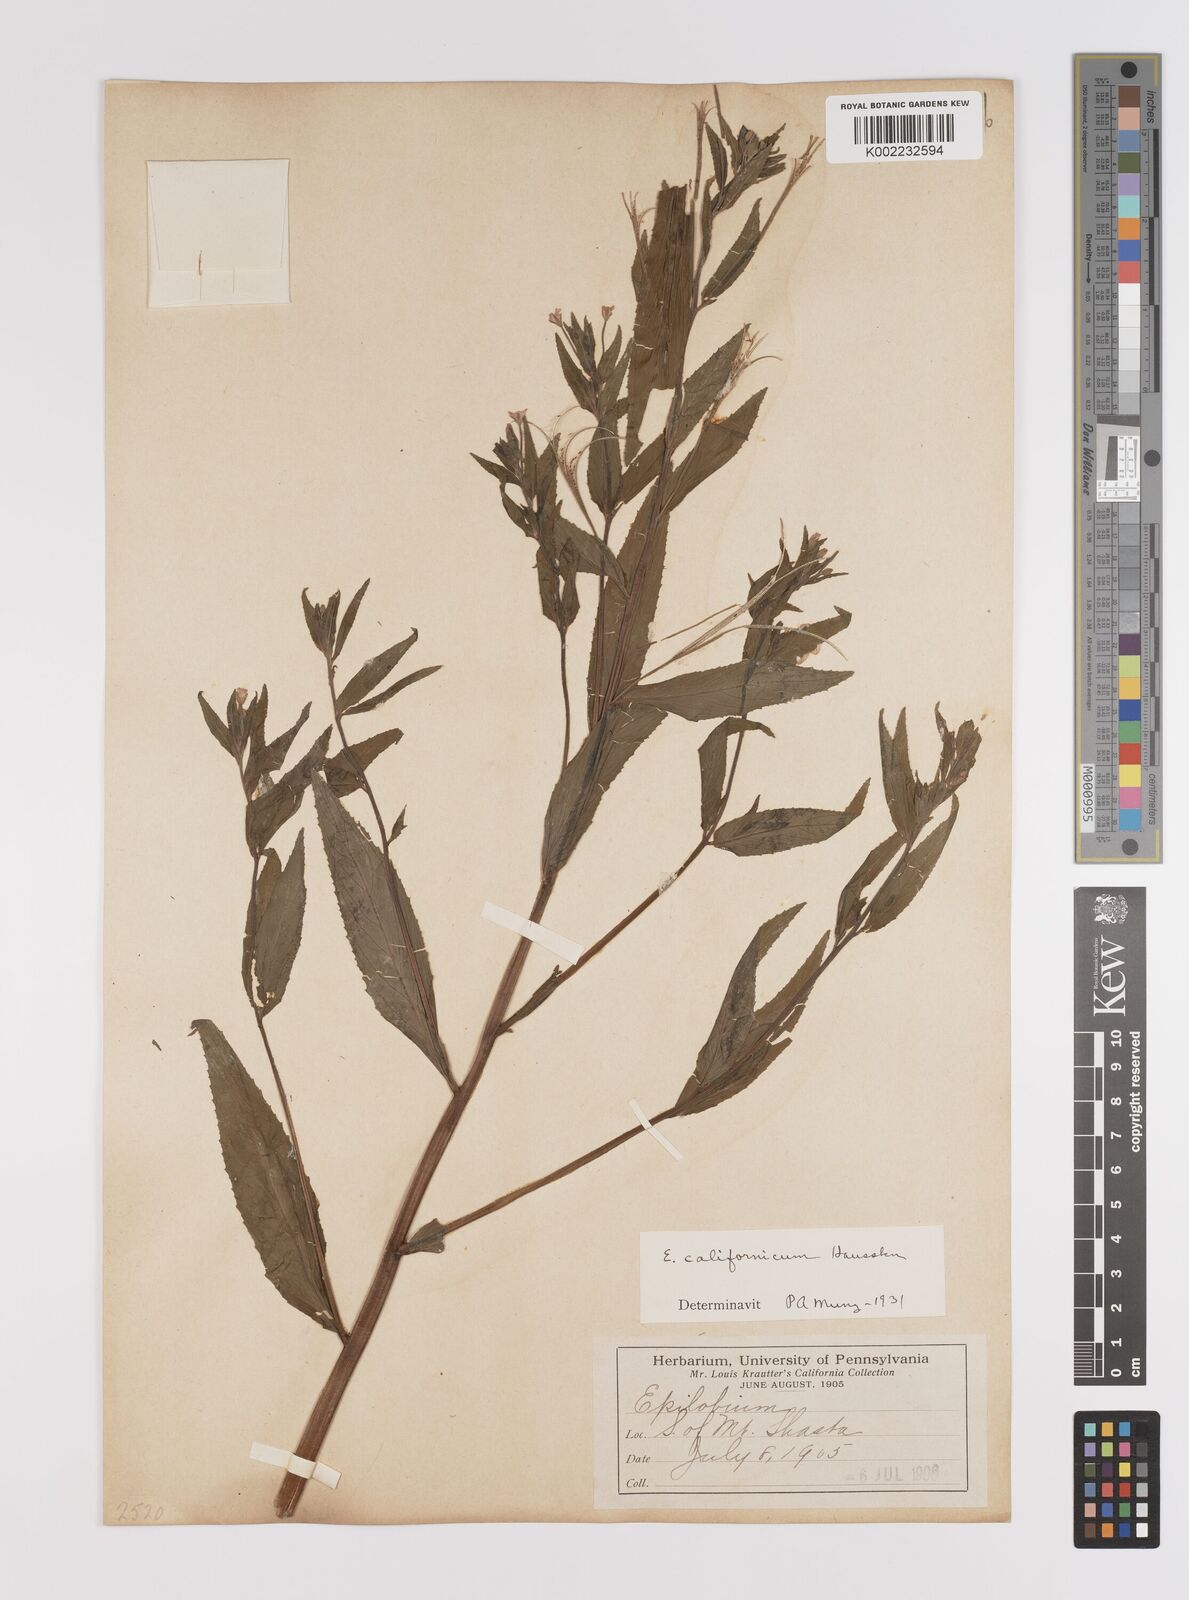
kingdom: Plantae
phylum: Tracheophyta
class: Magnoliopsida
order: Myrtales
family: Onagraceae
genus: Epilobium
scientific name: Epilobium ciliatum
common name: American willowherb
